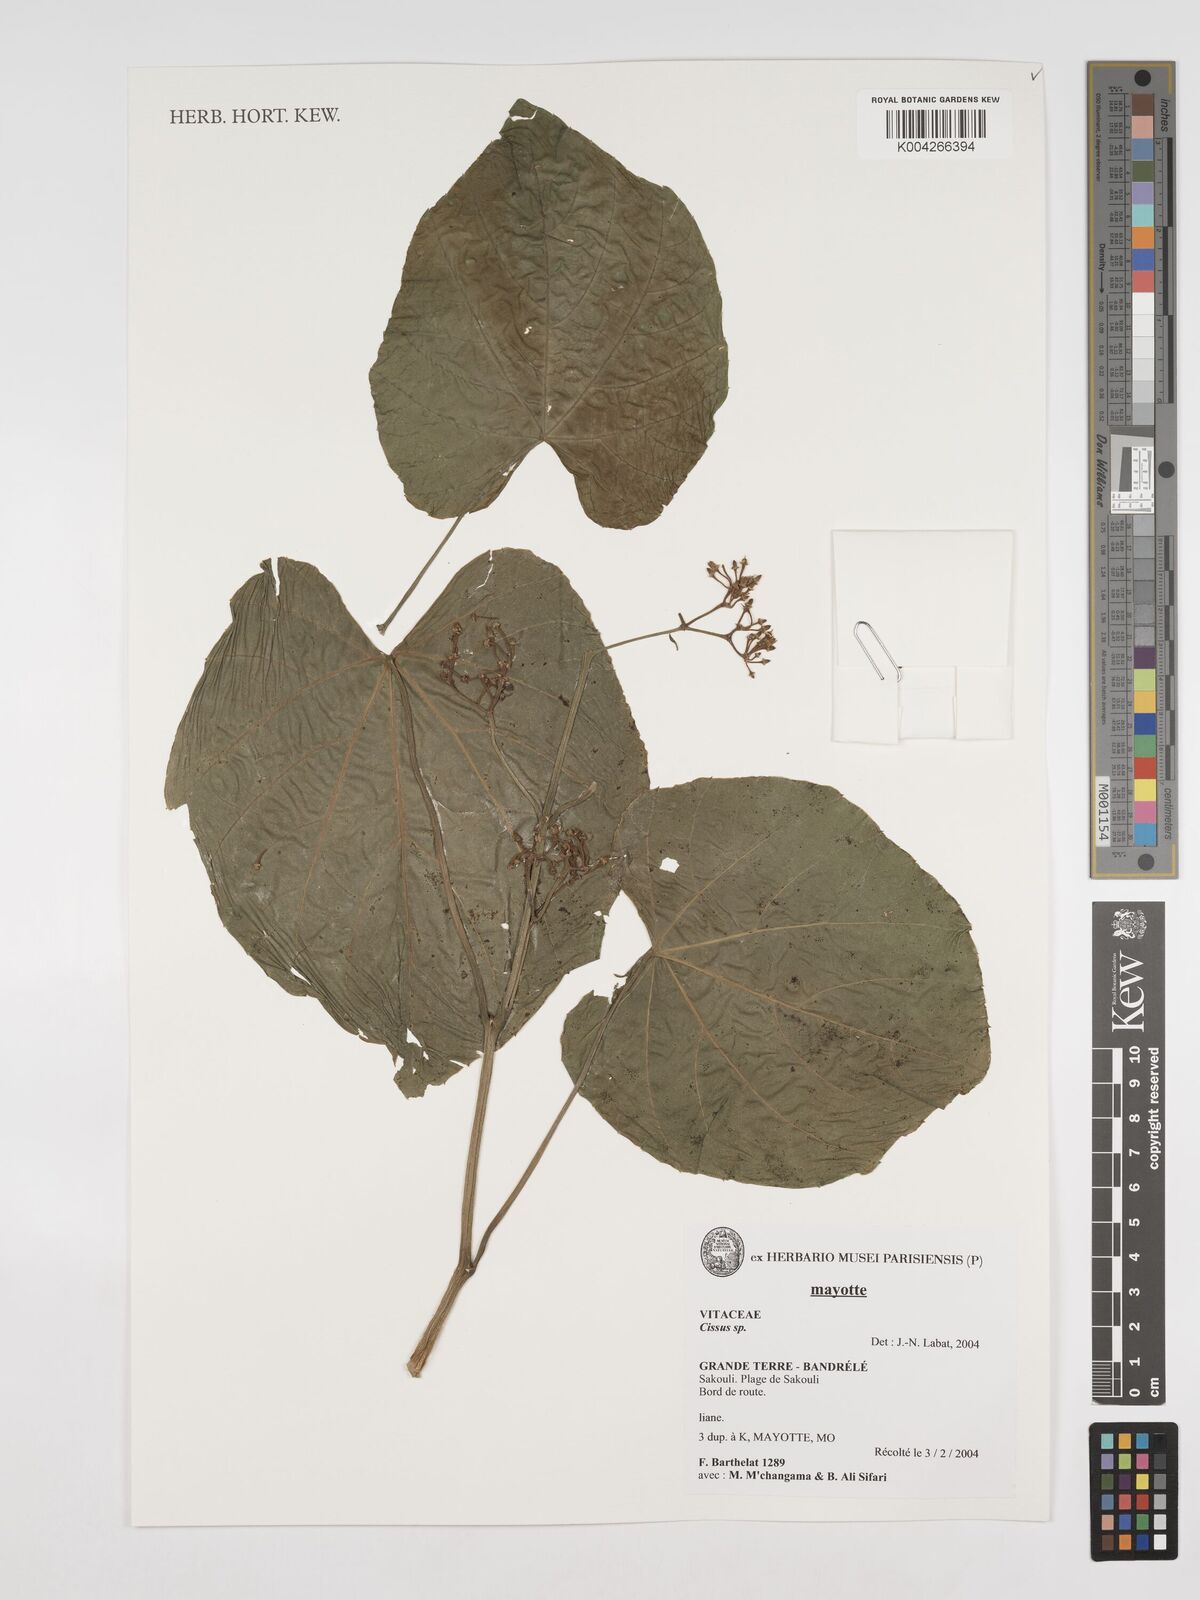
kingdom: Plantae
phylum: Tracheophyta
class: Magnoliopsida
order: Vitales
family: Vitaceae
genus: Cissus
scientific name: Cissus
